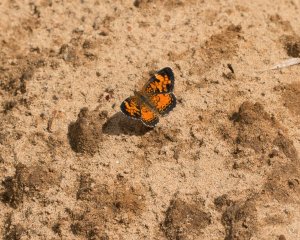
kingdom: Animalia
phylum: Arthropoda
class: Insecta
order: Lepidoptera
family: Nymphalidae
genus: Phyciodes
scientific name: Phyciodes tharos
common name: Northern Crescent
